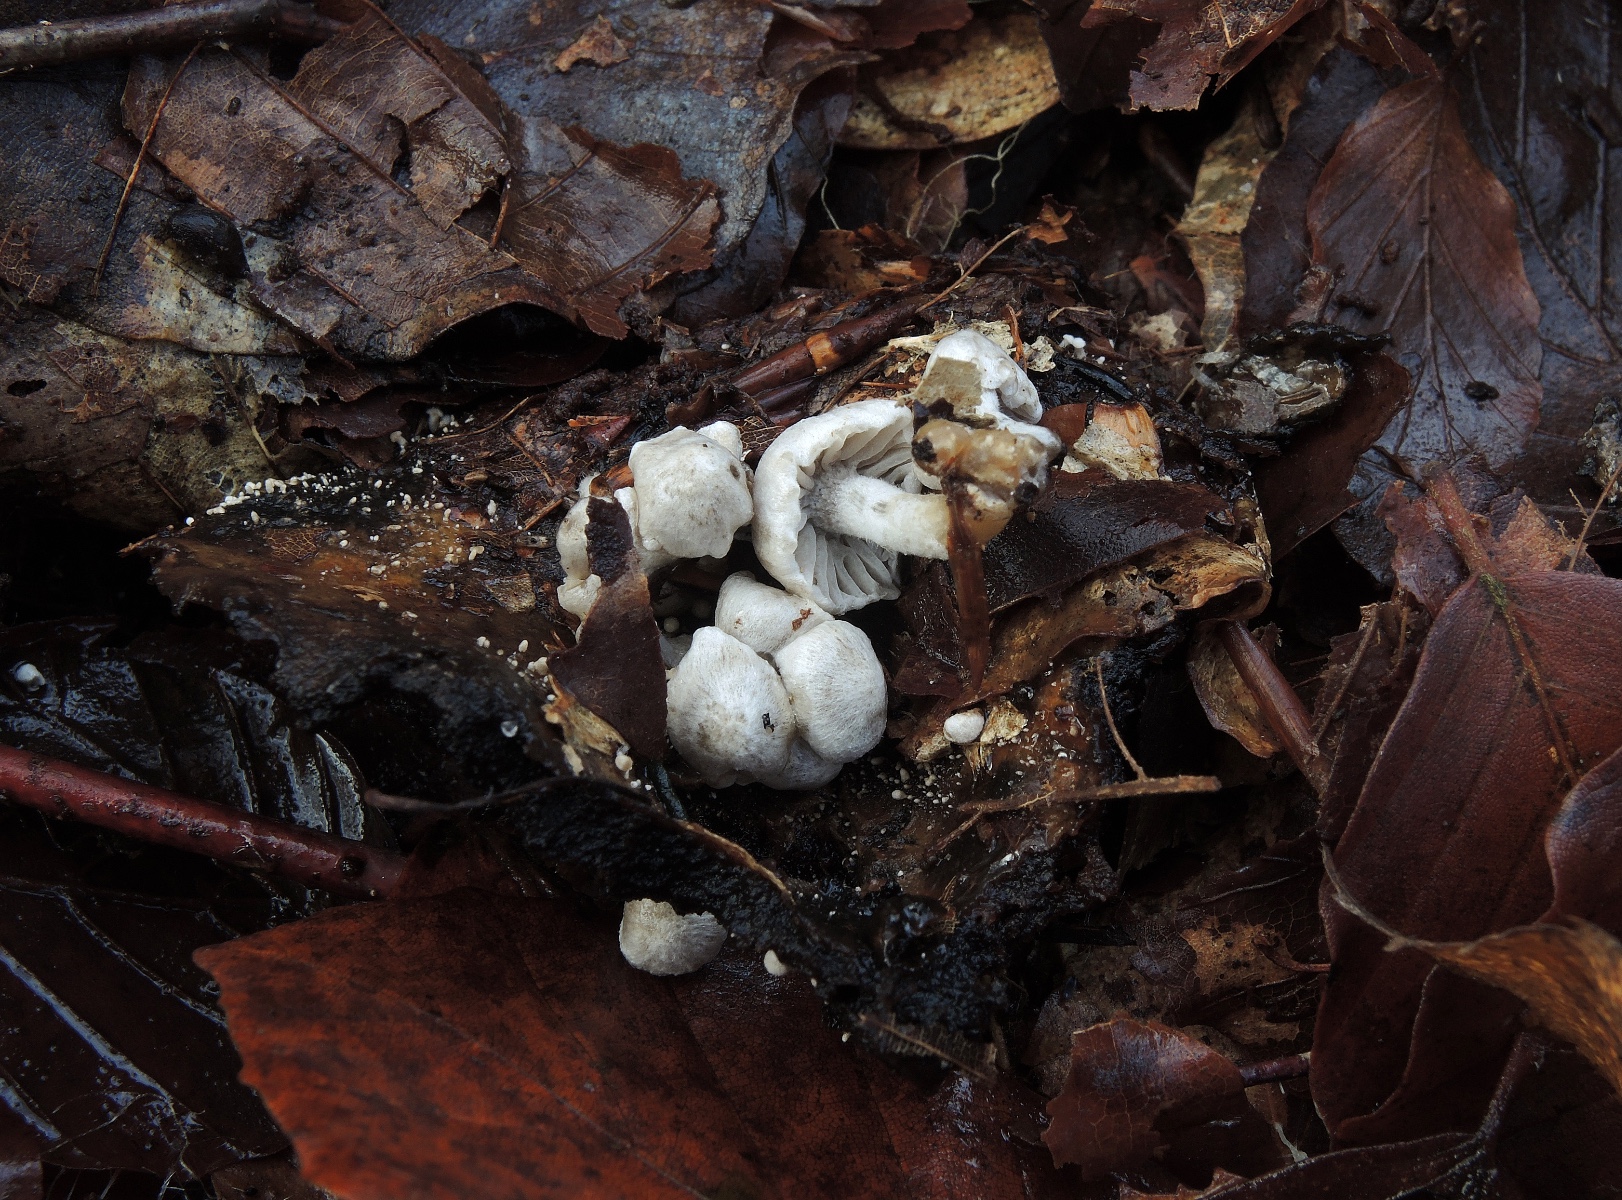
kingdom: Fungi
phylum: Basidiomycota
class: Agaricomycetes
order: Agaricales
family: Lyophyllaceae
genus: Asterophora
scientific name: Asterophora parasitica
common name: grå snyltehat
